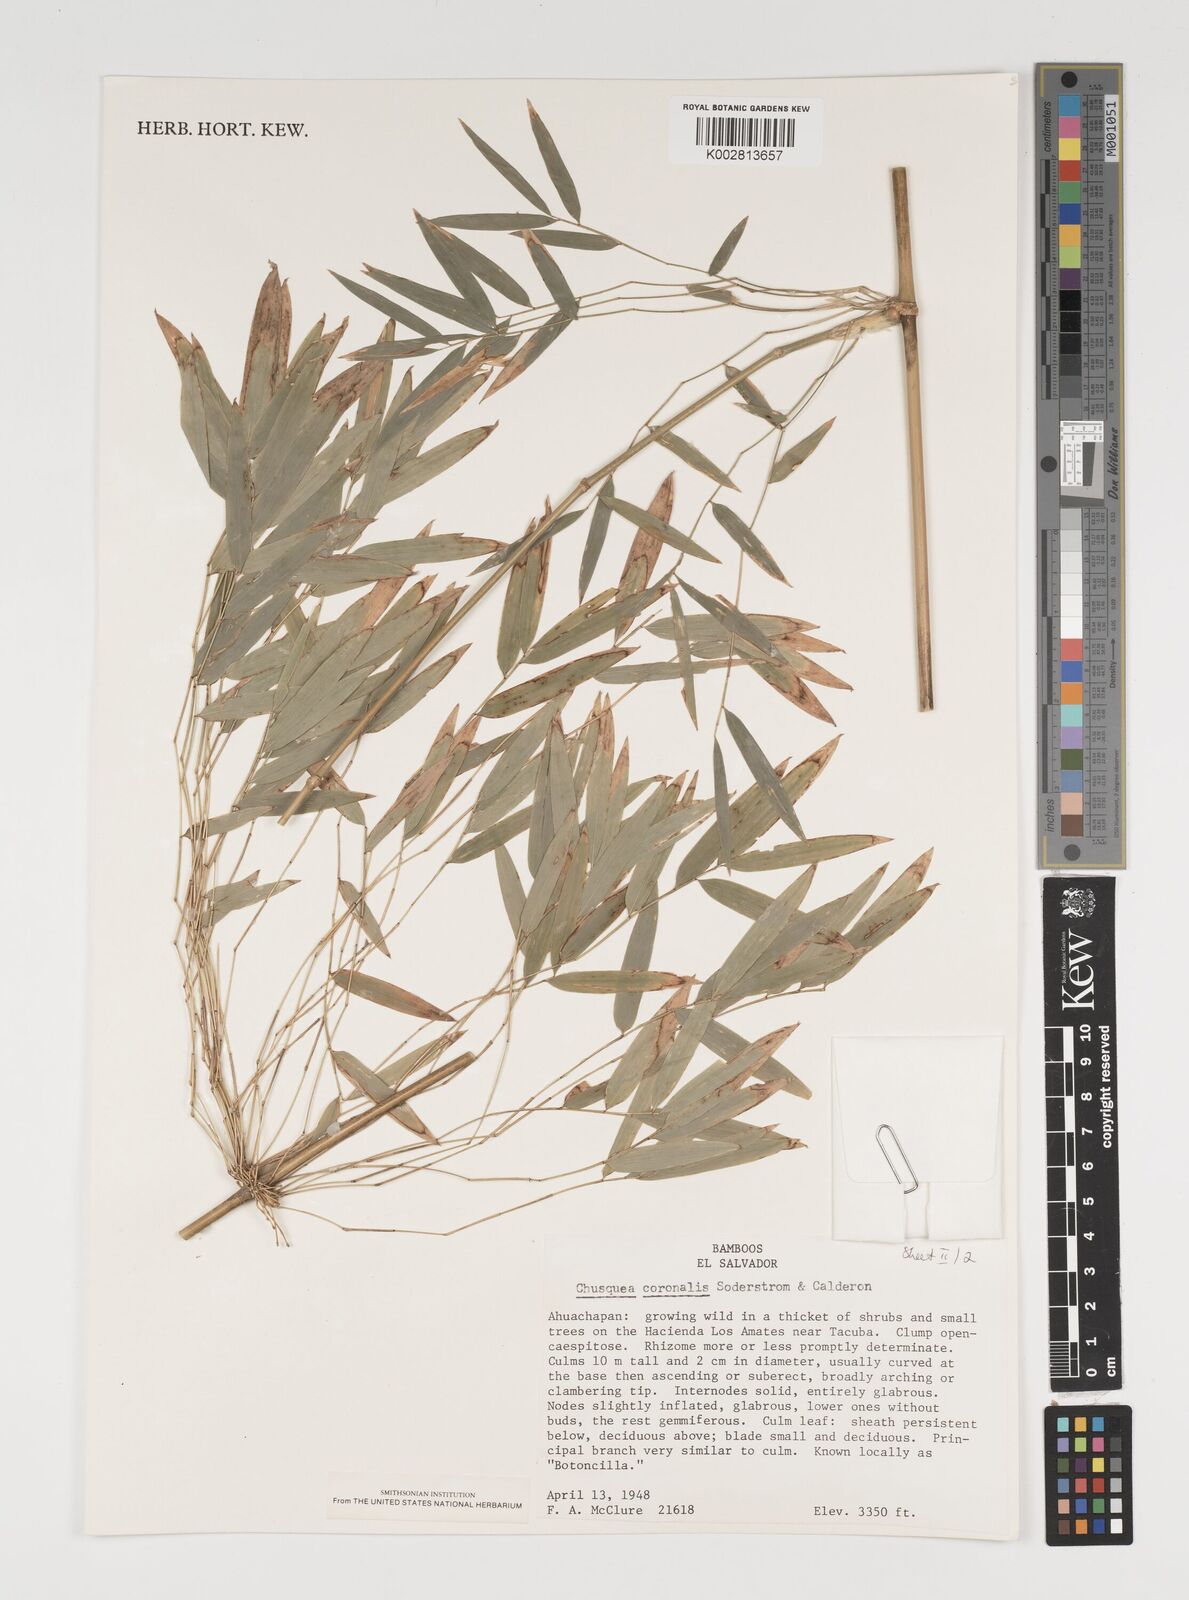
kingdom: Plantae
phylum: Tracheophyta
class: Liliopsida
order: Poales
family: Poaceae
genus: Chusquea
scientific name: Chusquea coronalis
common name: Machris bamboo
